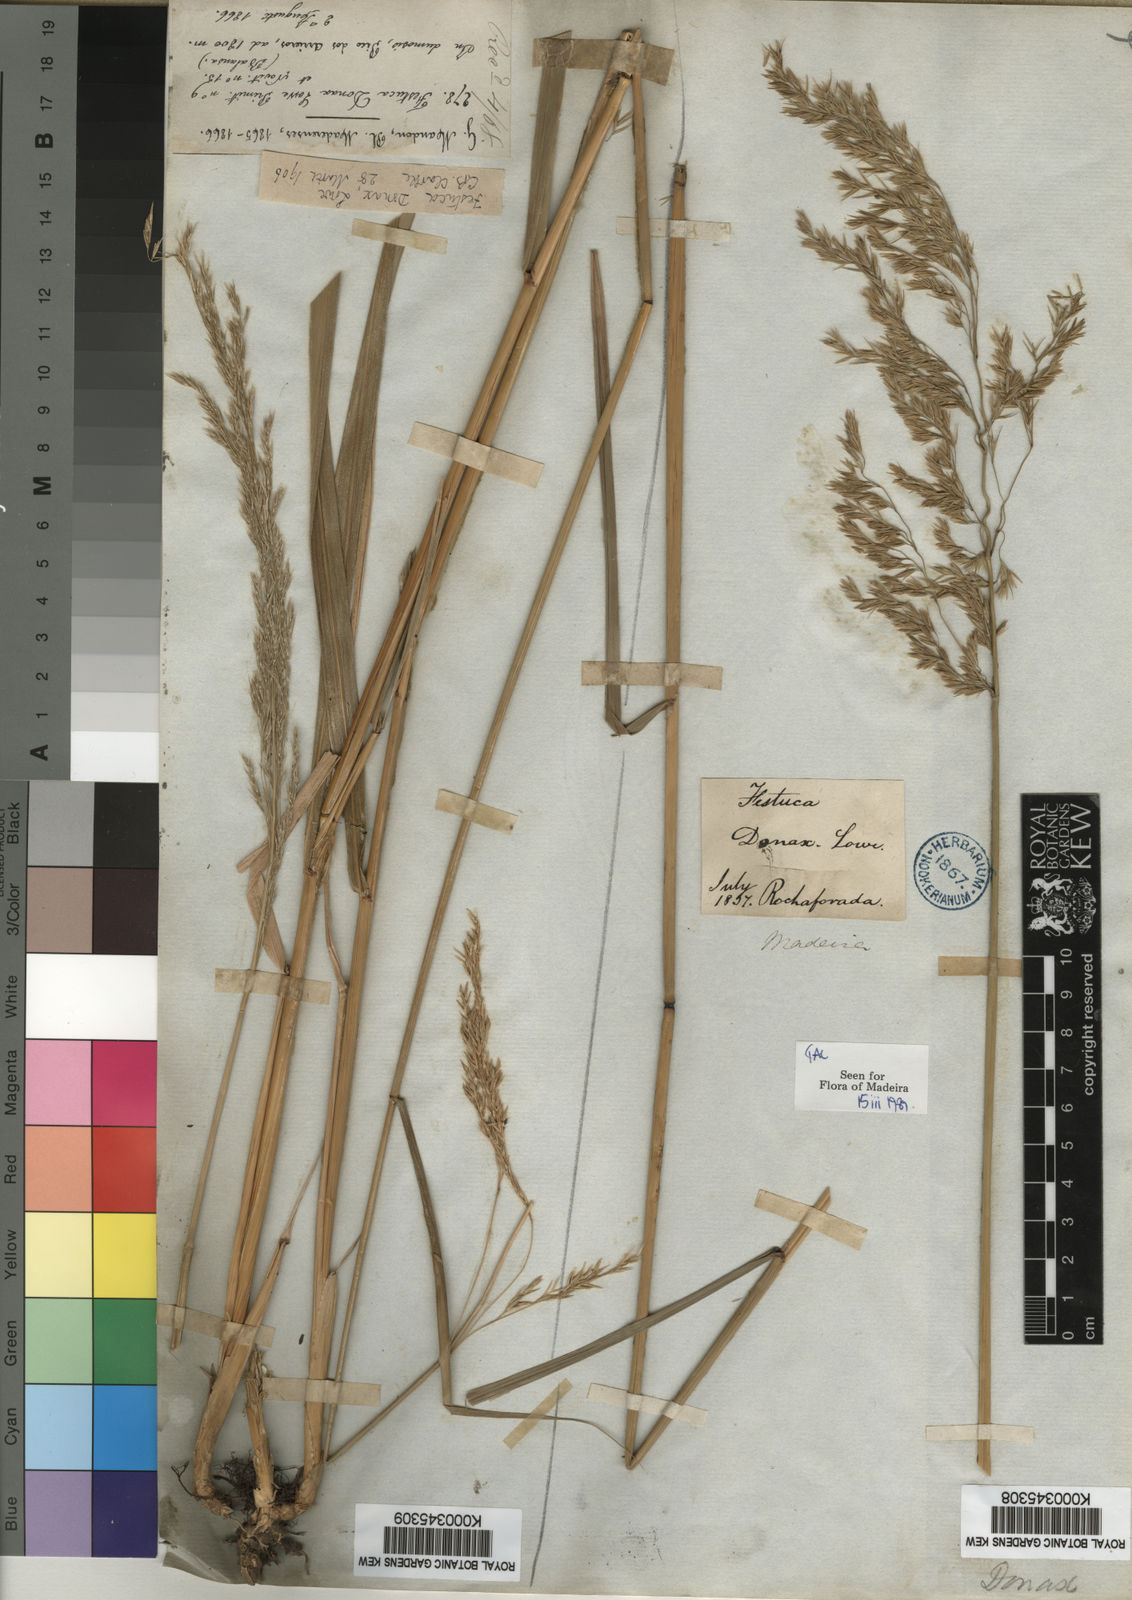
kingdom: Plantae
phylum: Tracheophyta
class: Liliopsida
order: Poales
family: Poaceae
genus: Festuca
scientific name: Festuca donax
